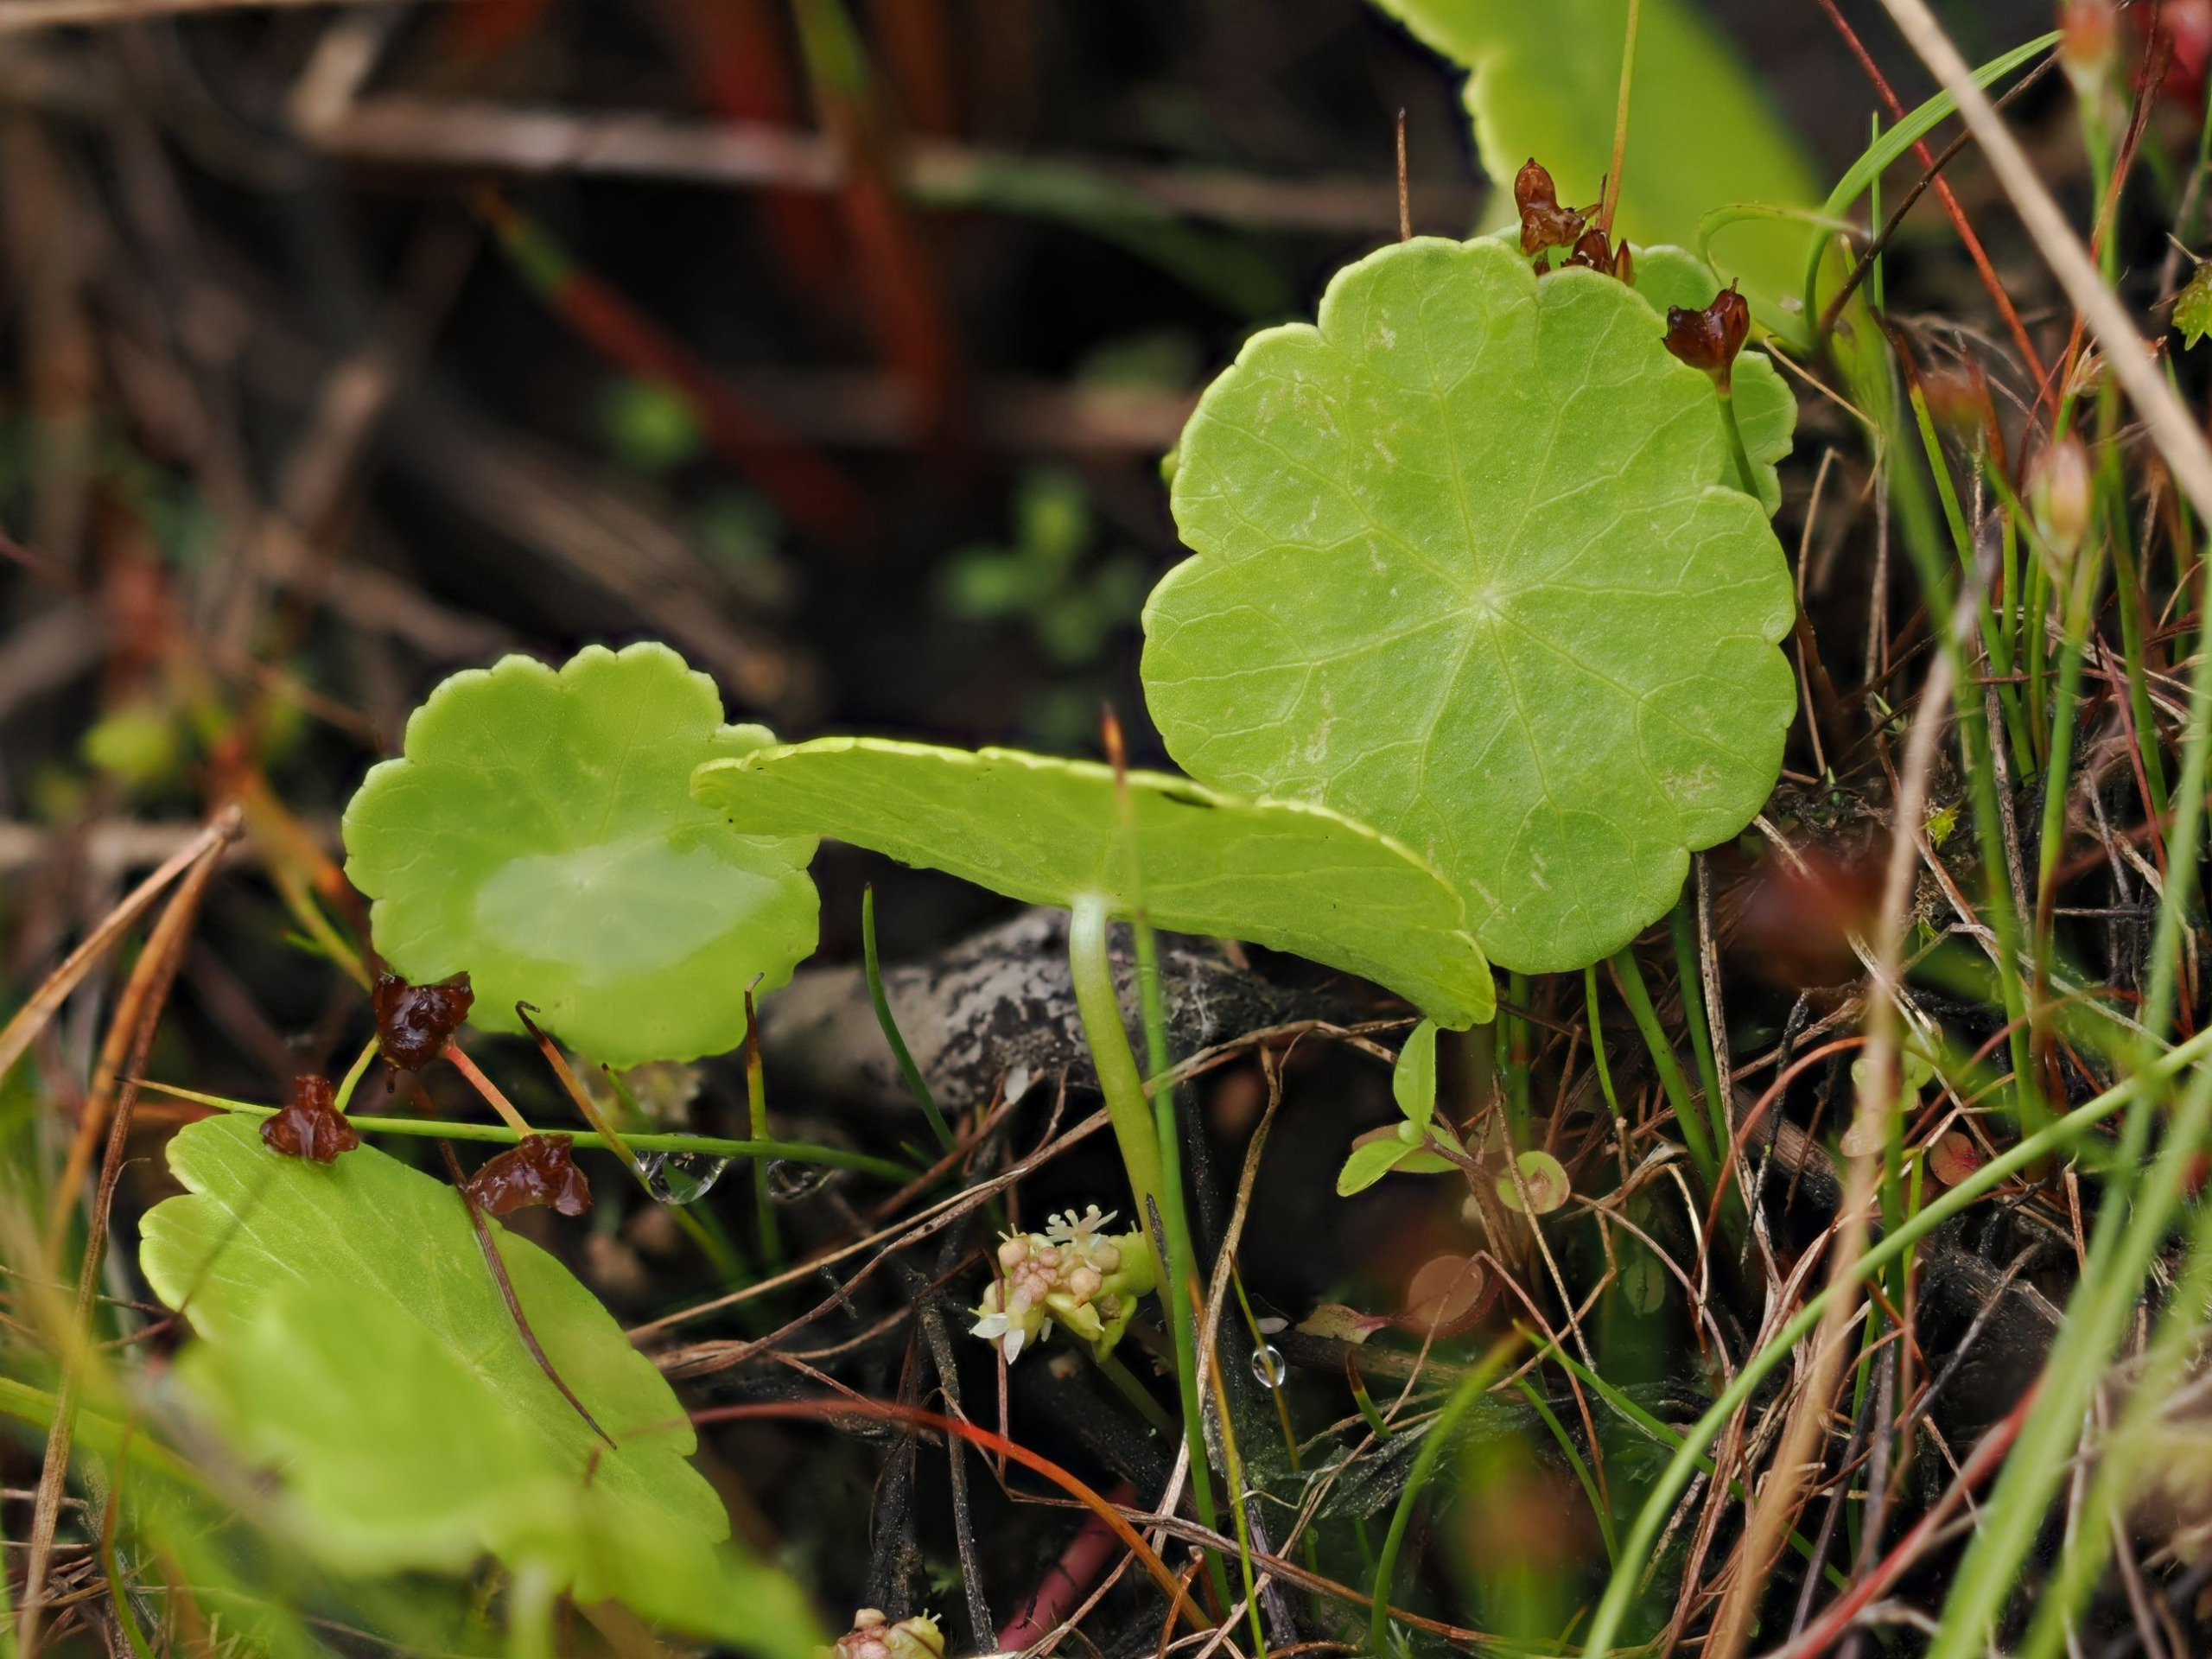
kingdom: Plantae
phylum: Tracheophyta
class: Magnoliopsida
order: Apiales
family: Araliaceae
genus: Hydrocotyle
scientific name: Hydrocotyle vulgaris
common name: Vandnavle
